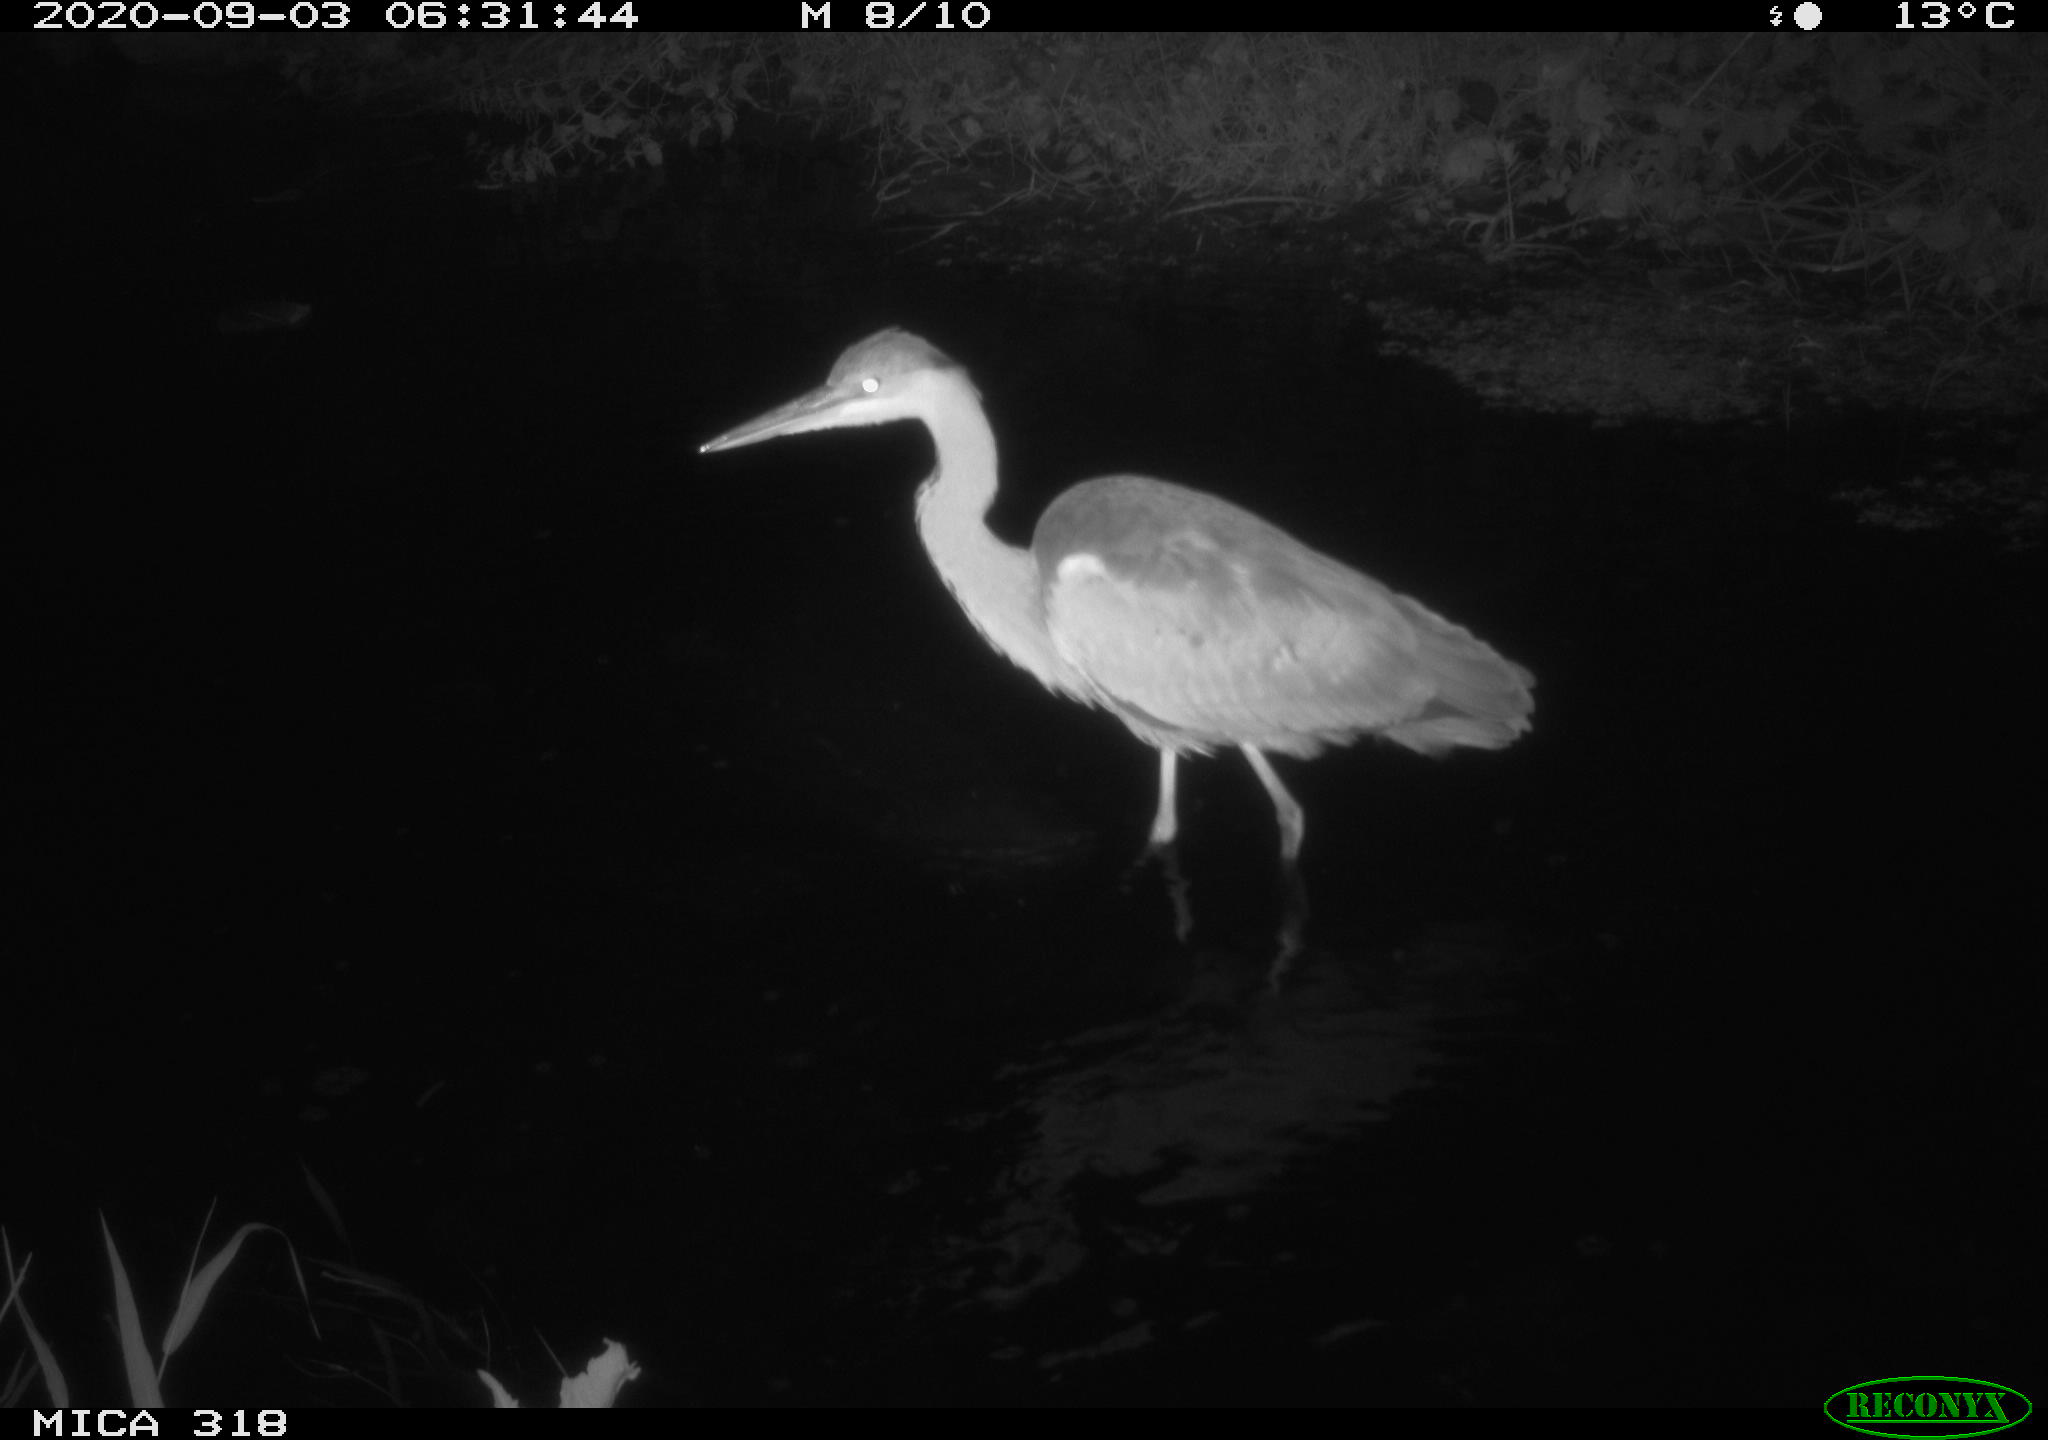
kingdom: Animalia
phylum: Chordata
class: Aves
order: Pelecaniformes
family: Ardeidae
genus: Ardea
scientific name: Ardea
